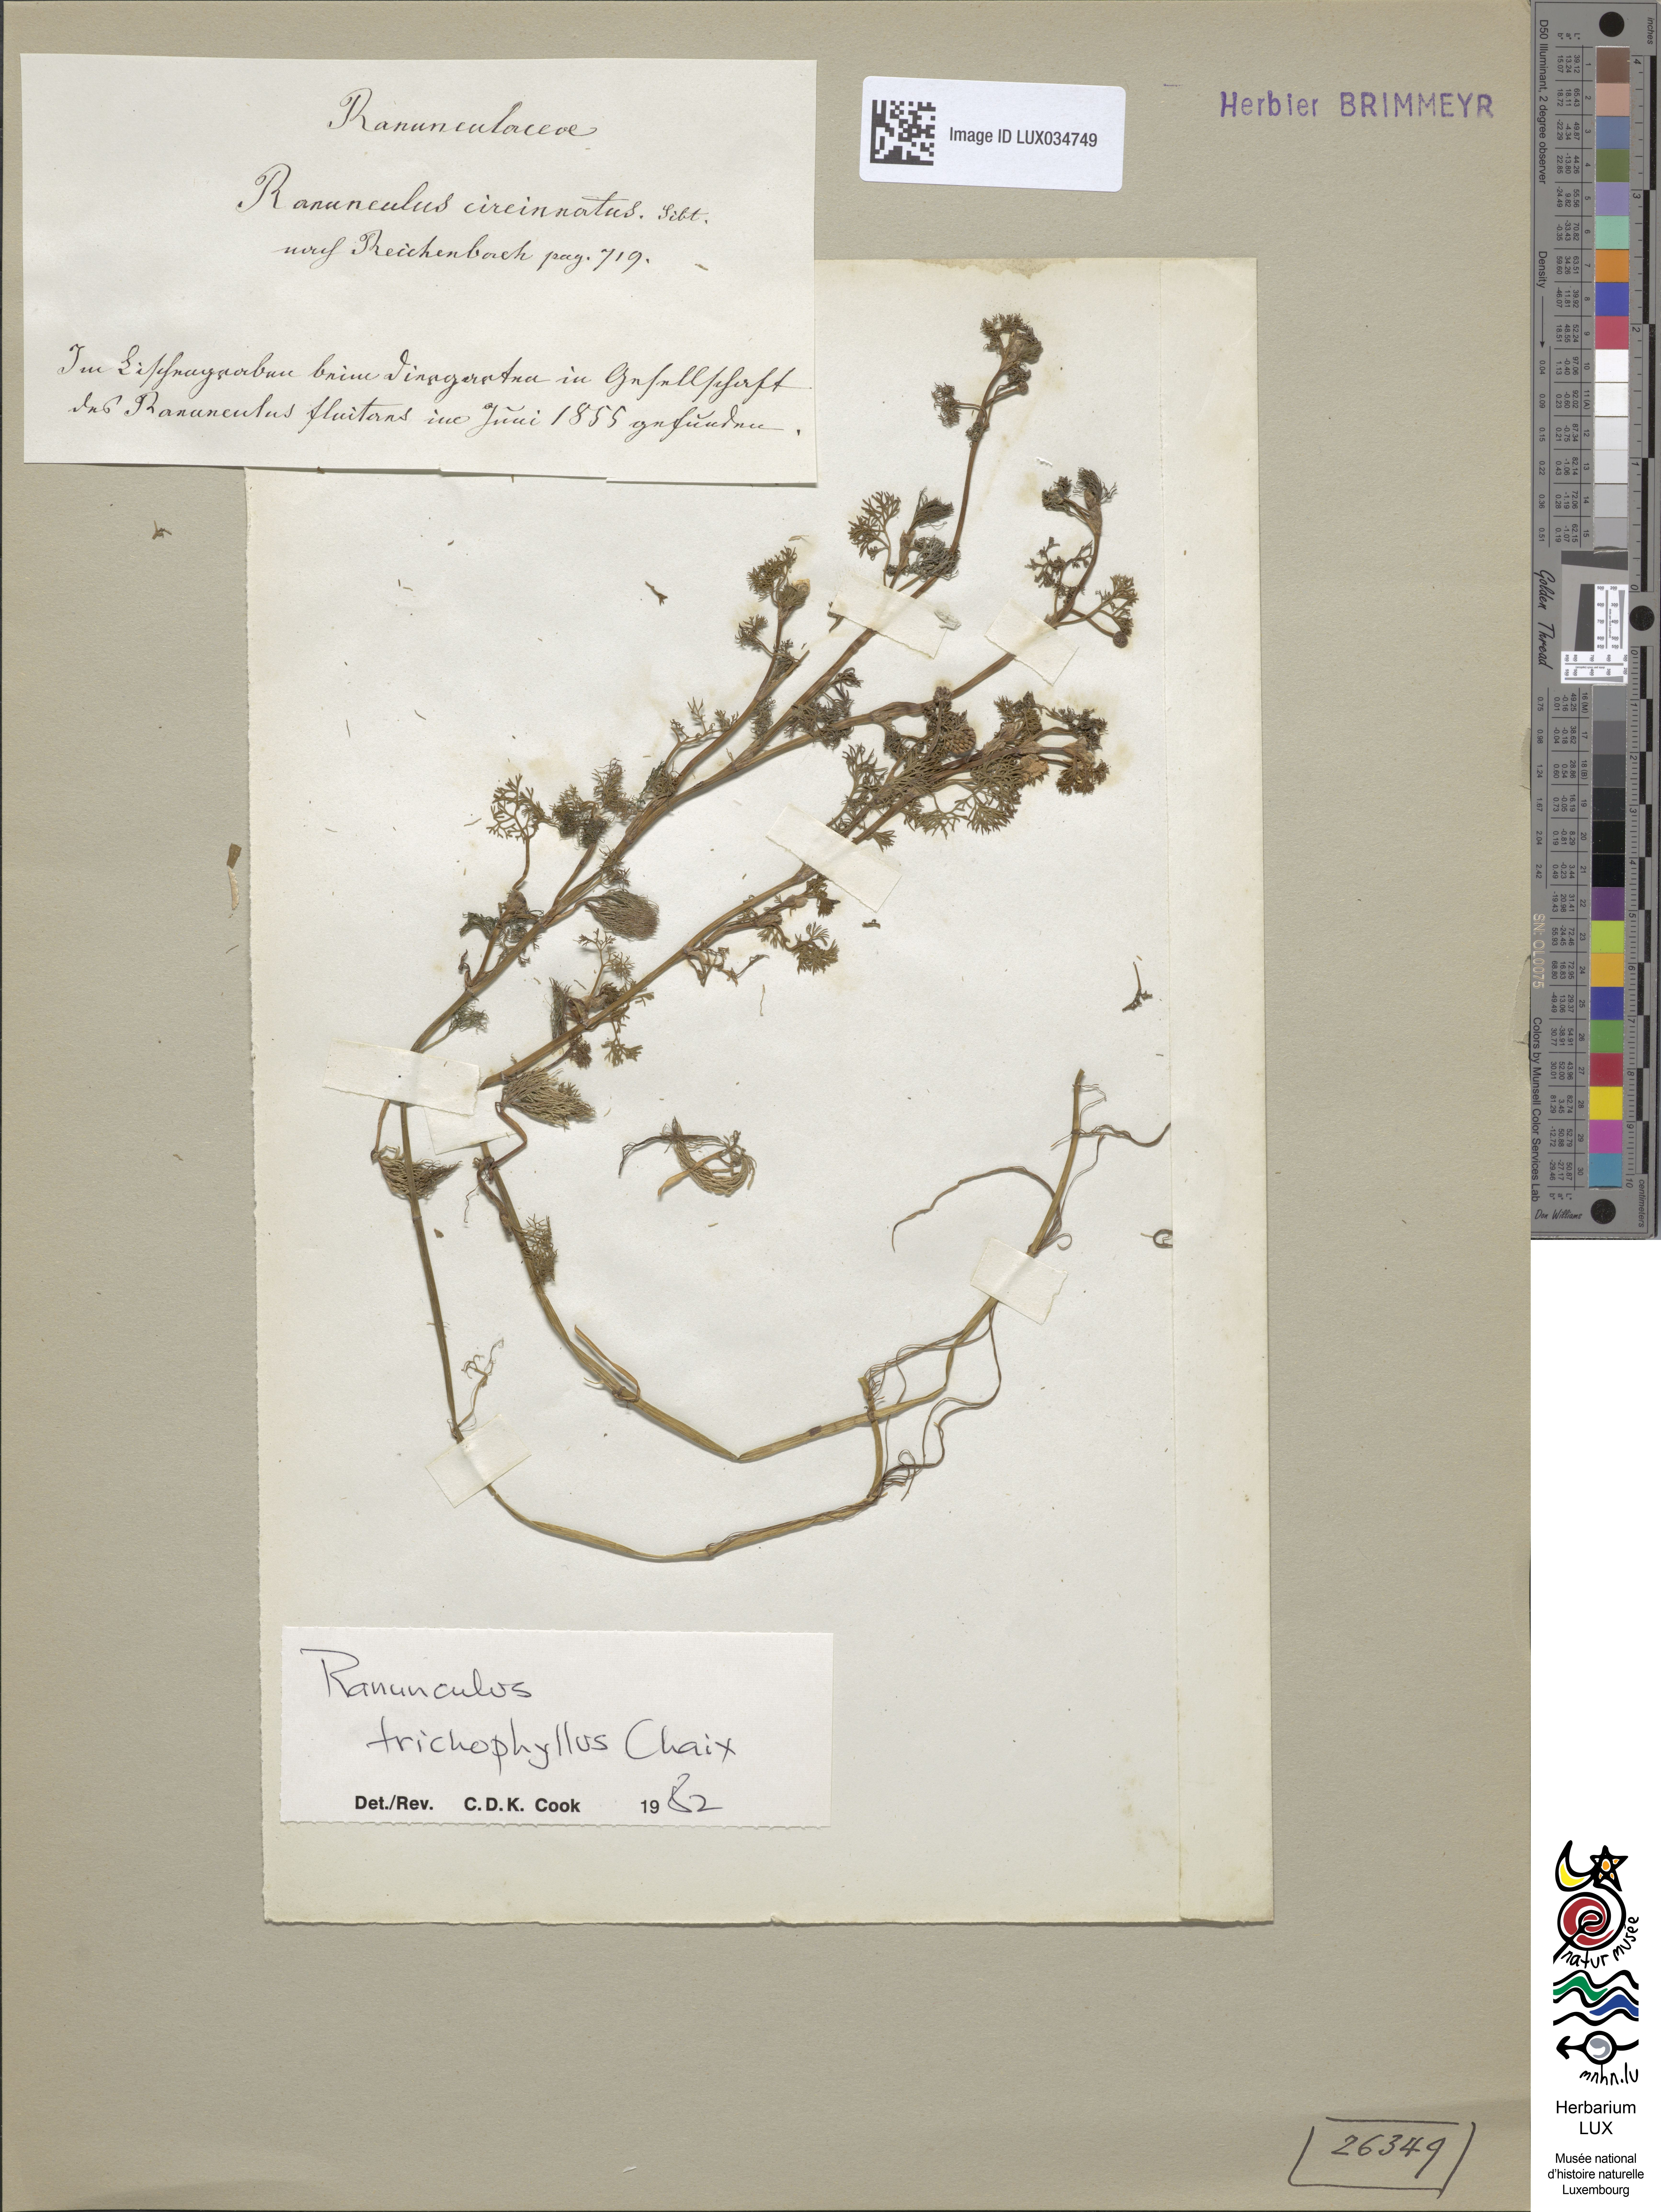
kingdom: Plantae
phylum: Tracheophyta
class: Magnoliopsida
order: Ranunculales
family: Ranunculaceae
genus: Ranunculus
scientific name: Ranunculus circinatus
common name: Fan-leaved water-crowfoot
